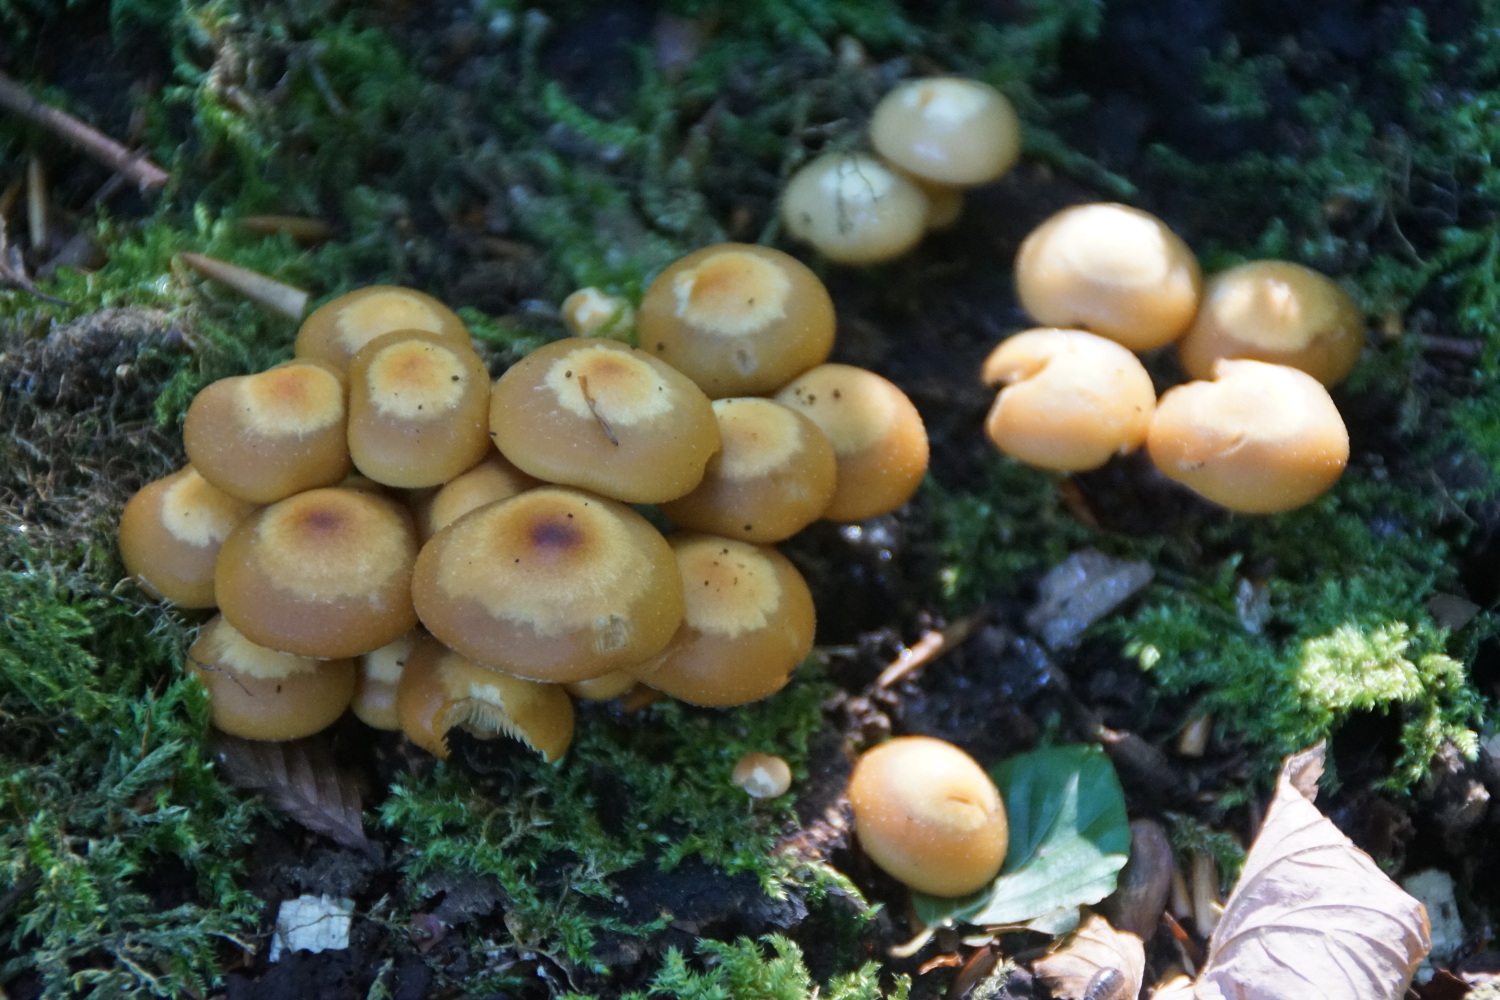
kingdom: Fungi
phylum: Basidiomycota
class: Agaricomycetes
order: Agaricales
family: Strophariaceae
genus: Kuehneromyces
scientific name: Kuehneromyces mutabilis
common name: foranderlig skælhat
